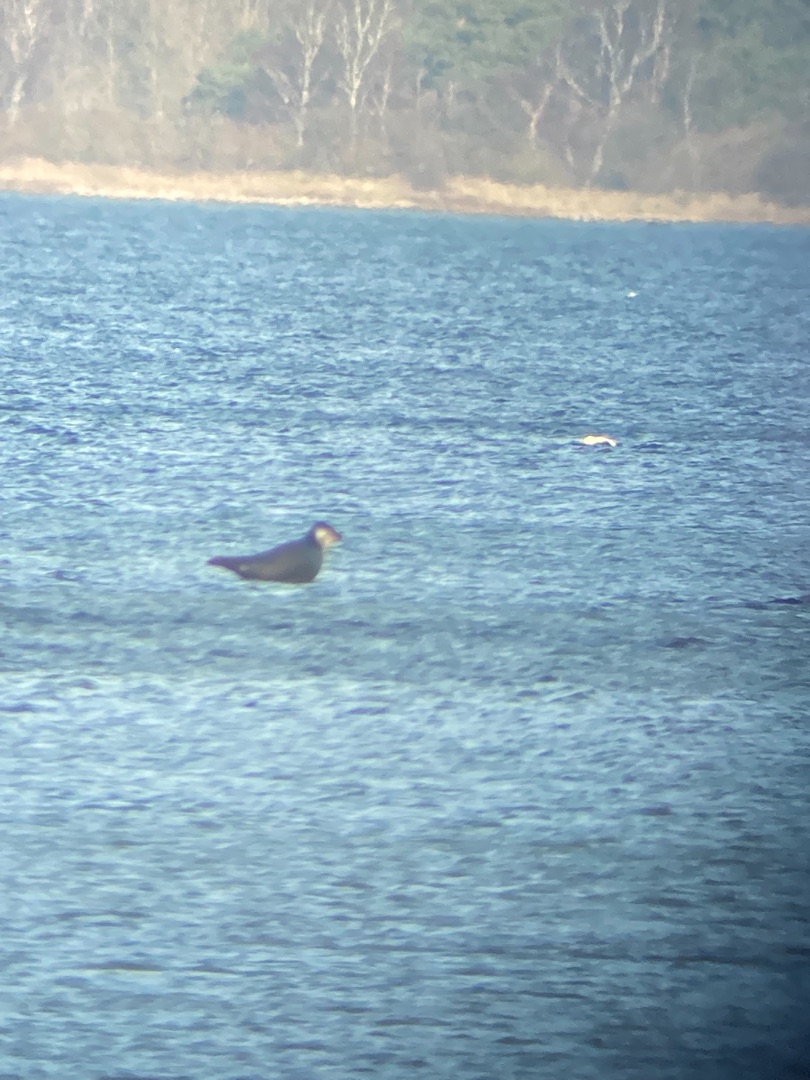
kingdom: Animalia
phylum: Chordata
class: Mammalia
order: Carnivora
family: Phocidae
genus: Phoca
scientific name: Phoca vitulina
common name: Spættet sæl
